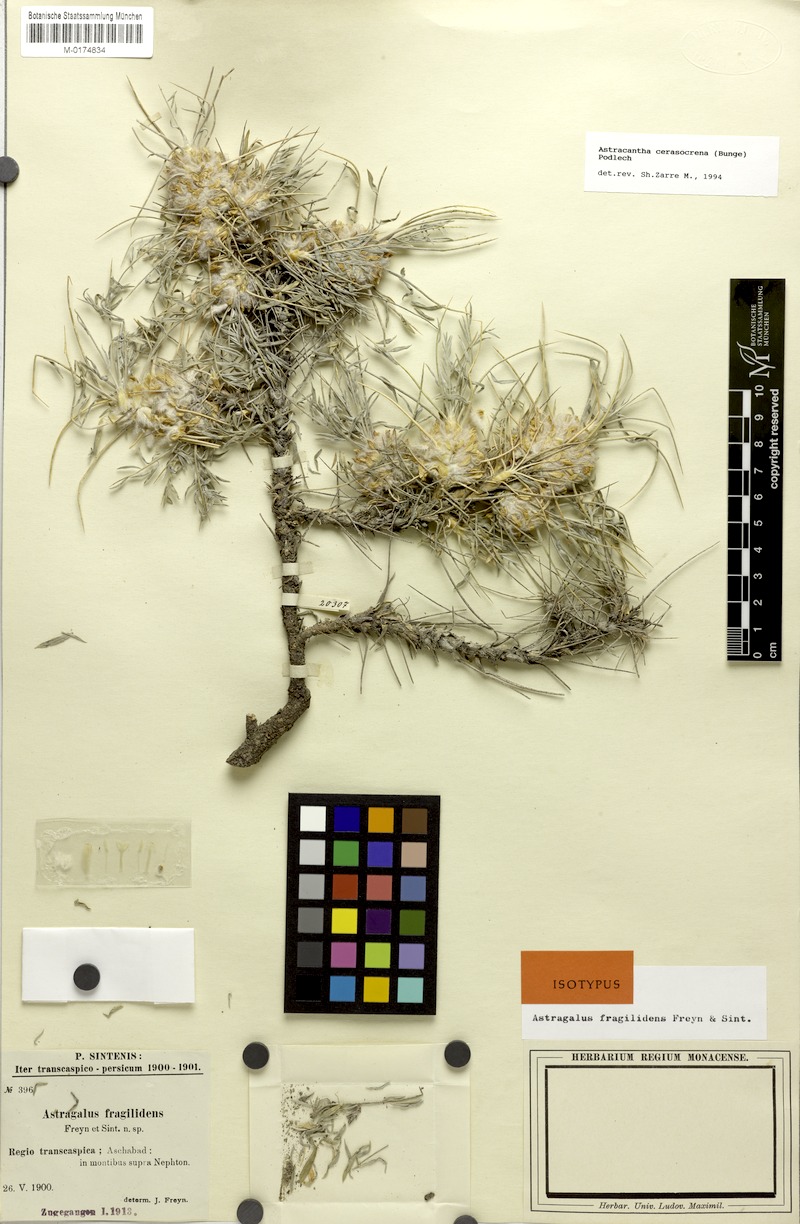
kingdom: Plantae
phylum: Tracheophyta
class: Magnoliopsida
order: Fabales
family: Fabaceae
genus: Astragalus
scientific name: Astragalus cerasocrenus
